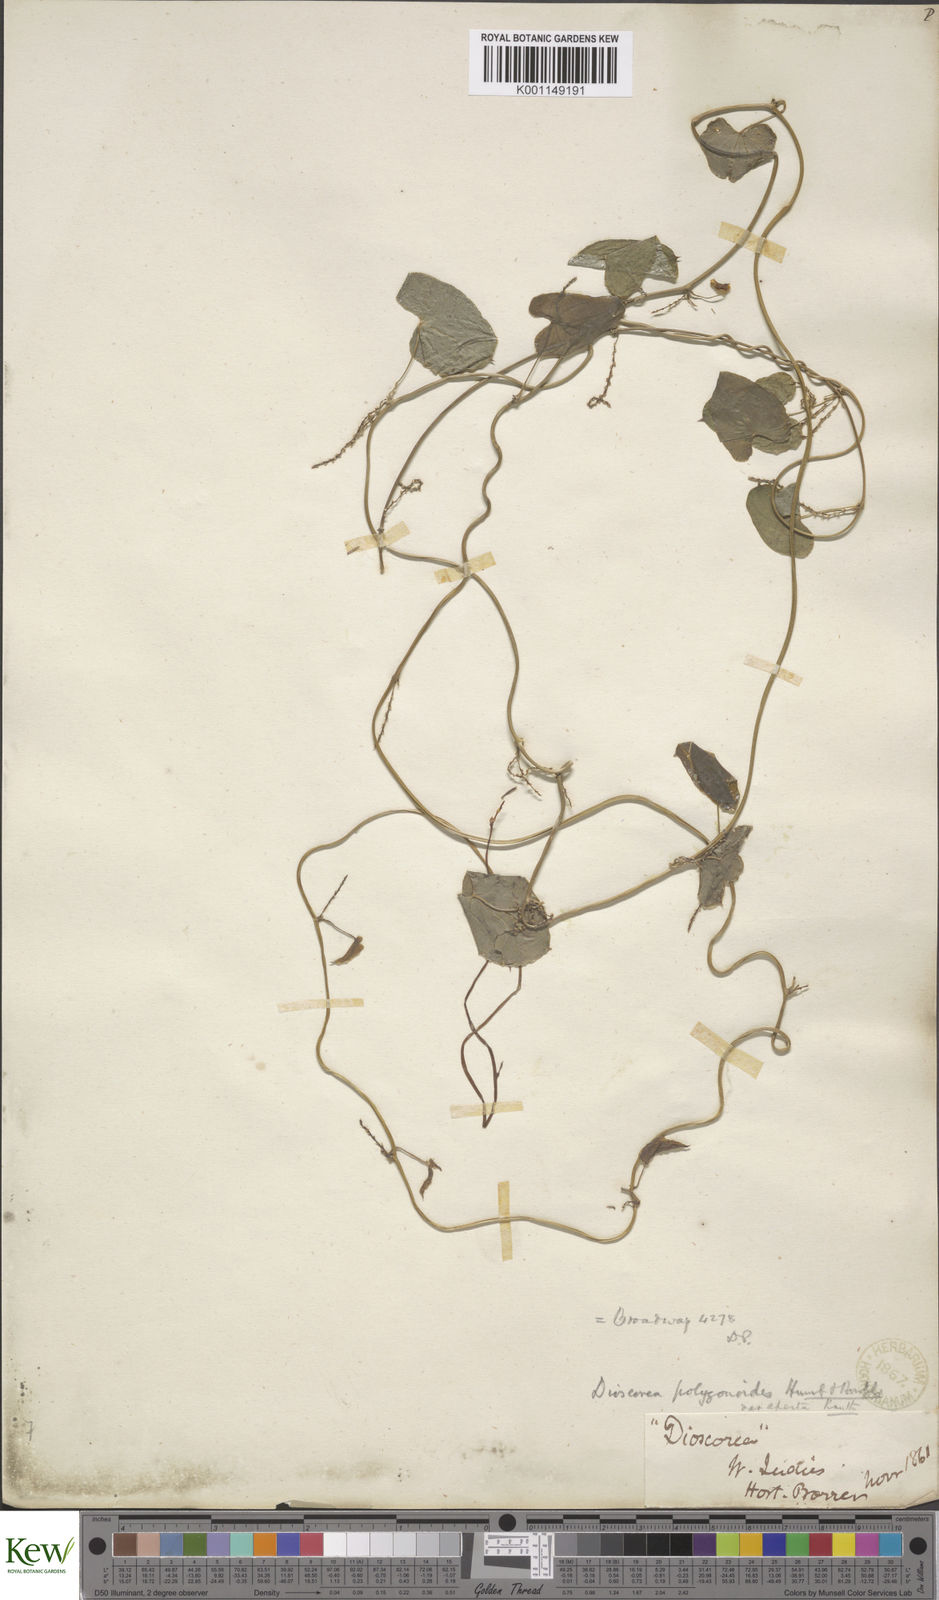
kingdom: Plantae
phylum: Tracheophyta
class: Liliopsida
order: Dioscoreales
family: Dioscoreaceae
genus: Dioscorea
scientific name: Dioscorea polygonoides
